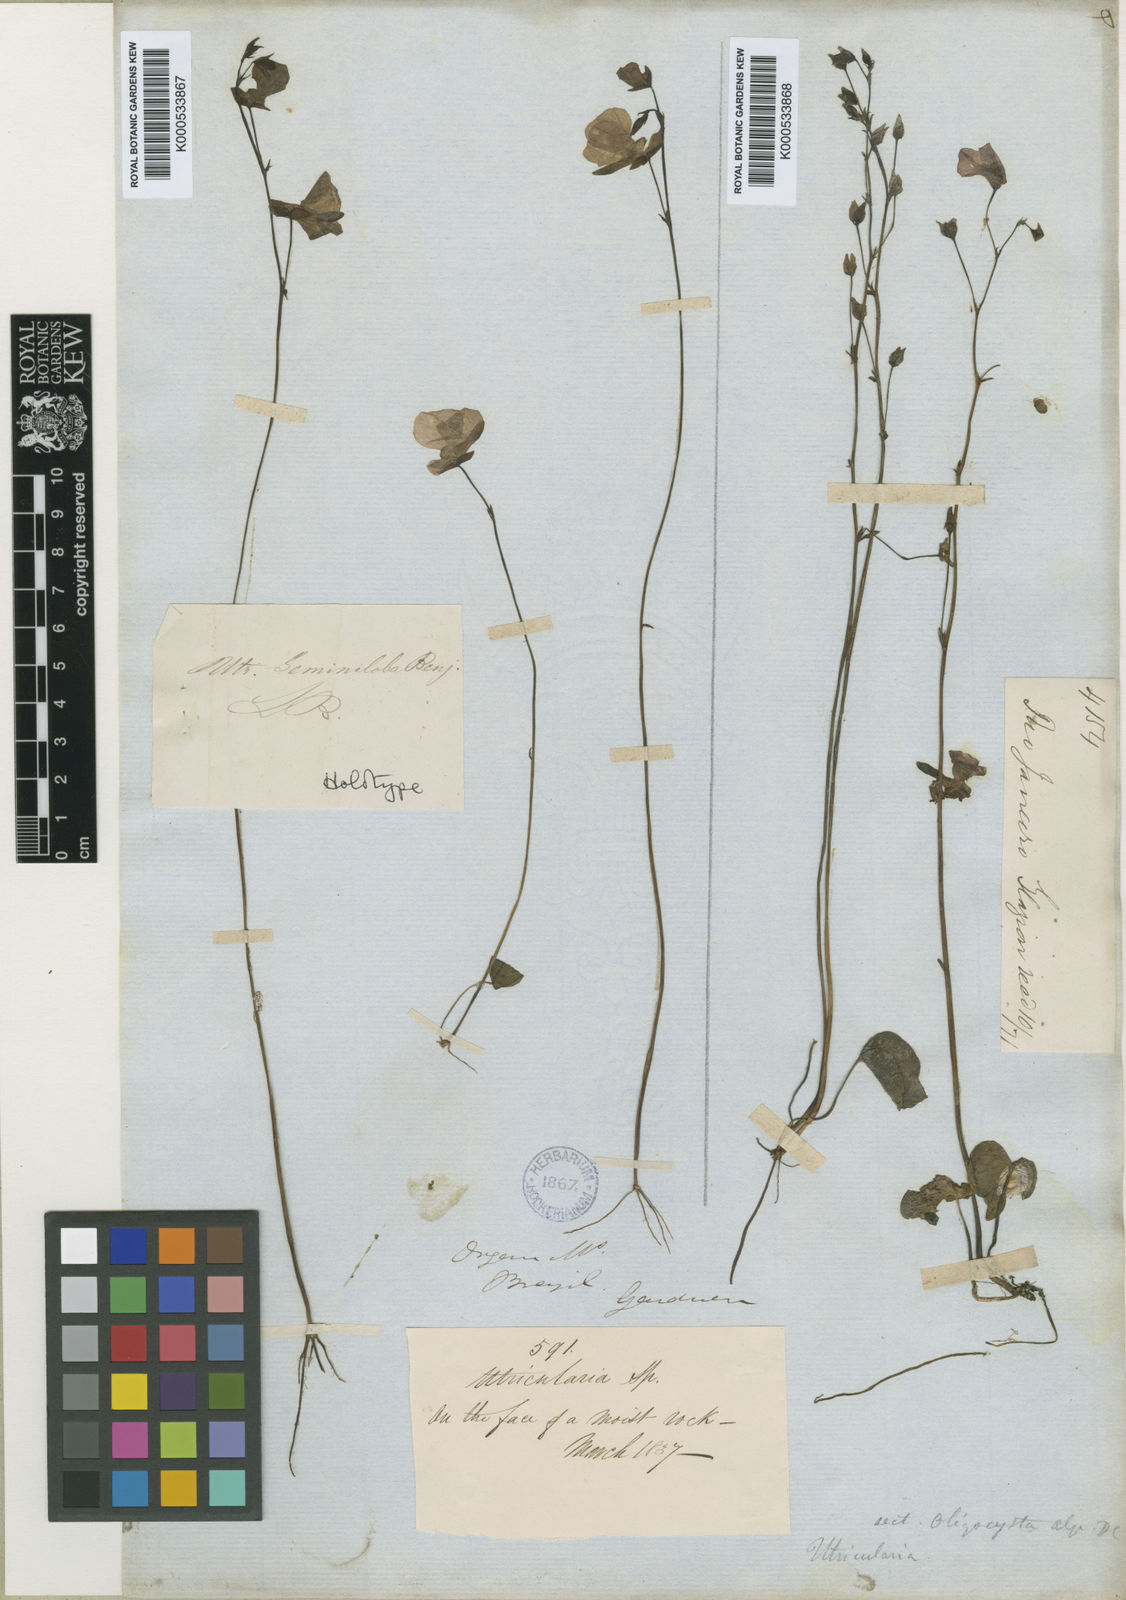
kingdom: Plantae
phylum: Tracheophyta
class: Magnoliopsida
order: Lamiales
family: Lentibulariaceae
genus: Utricularia
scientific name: Utricularia geminiloba
